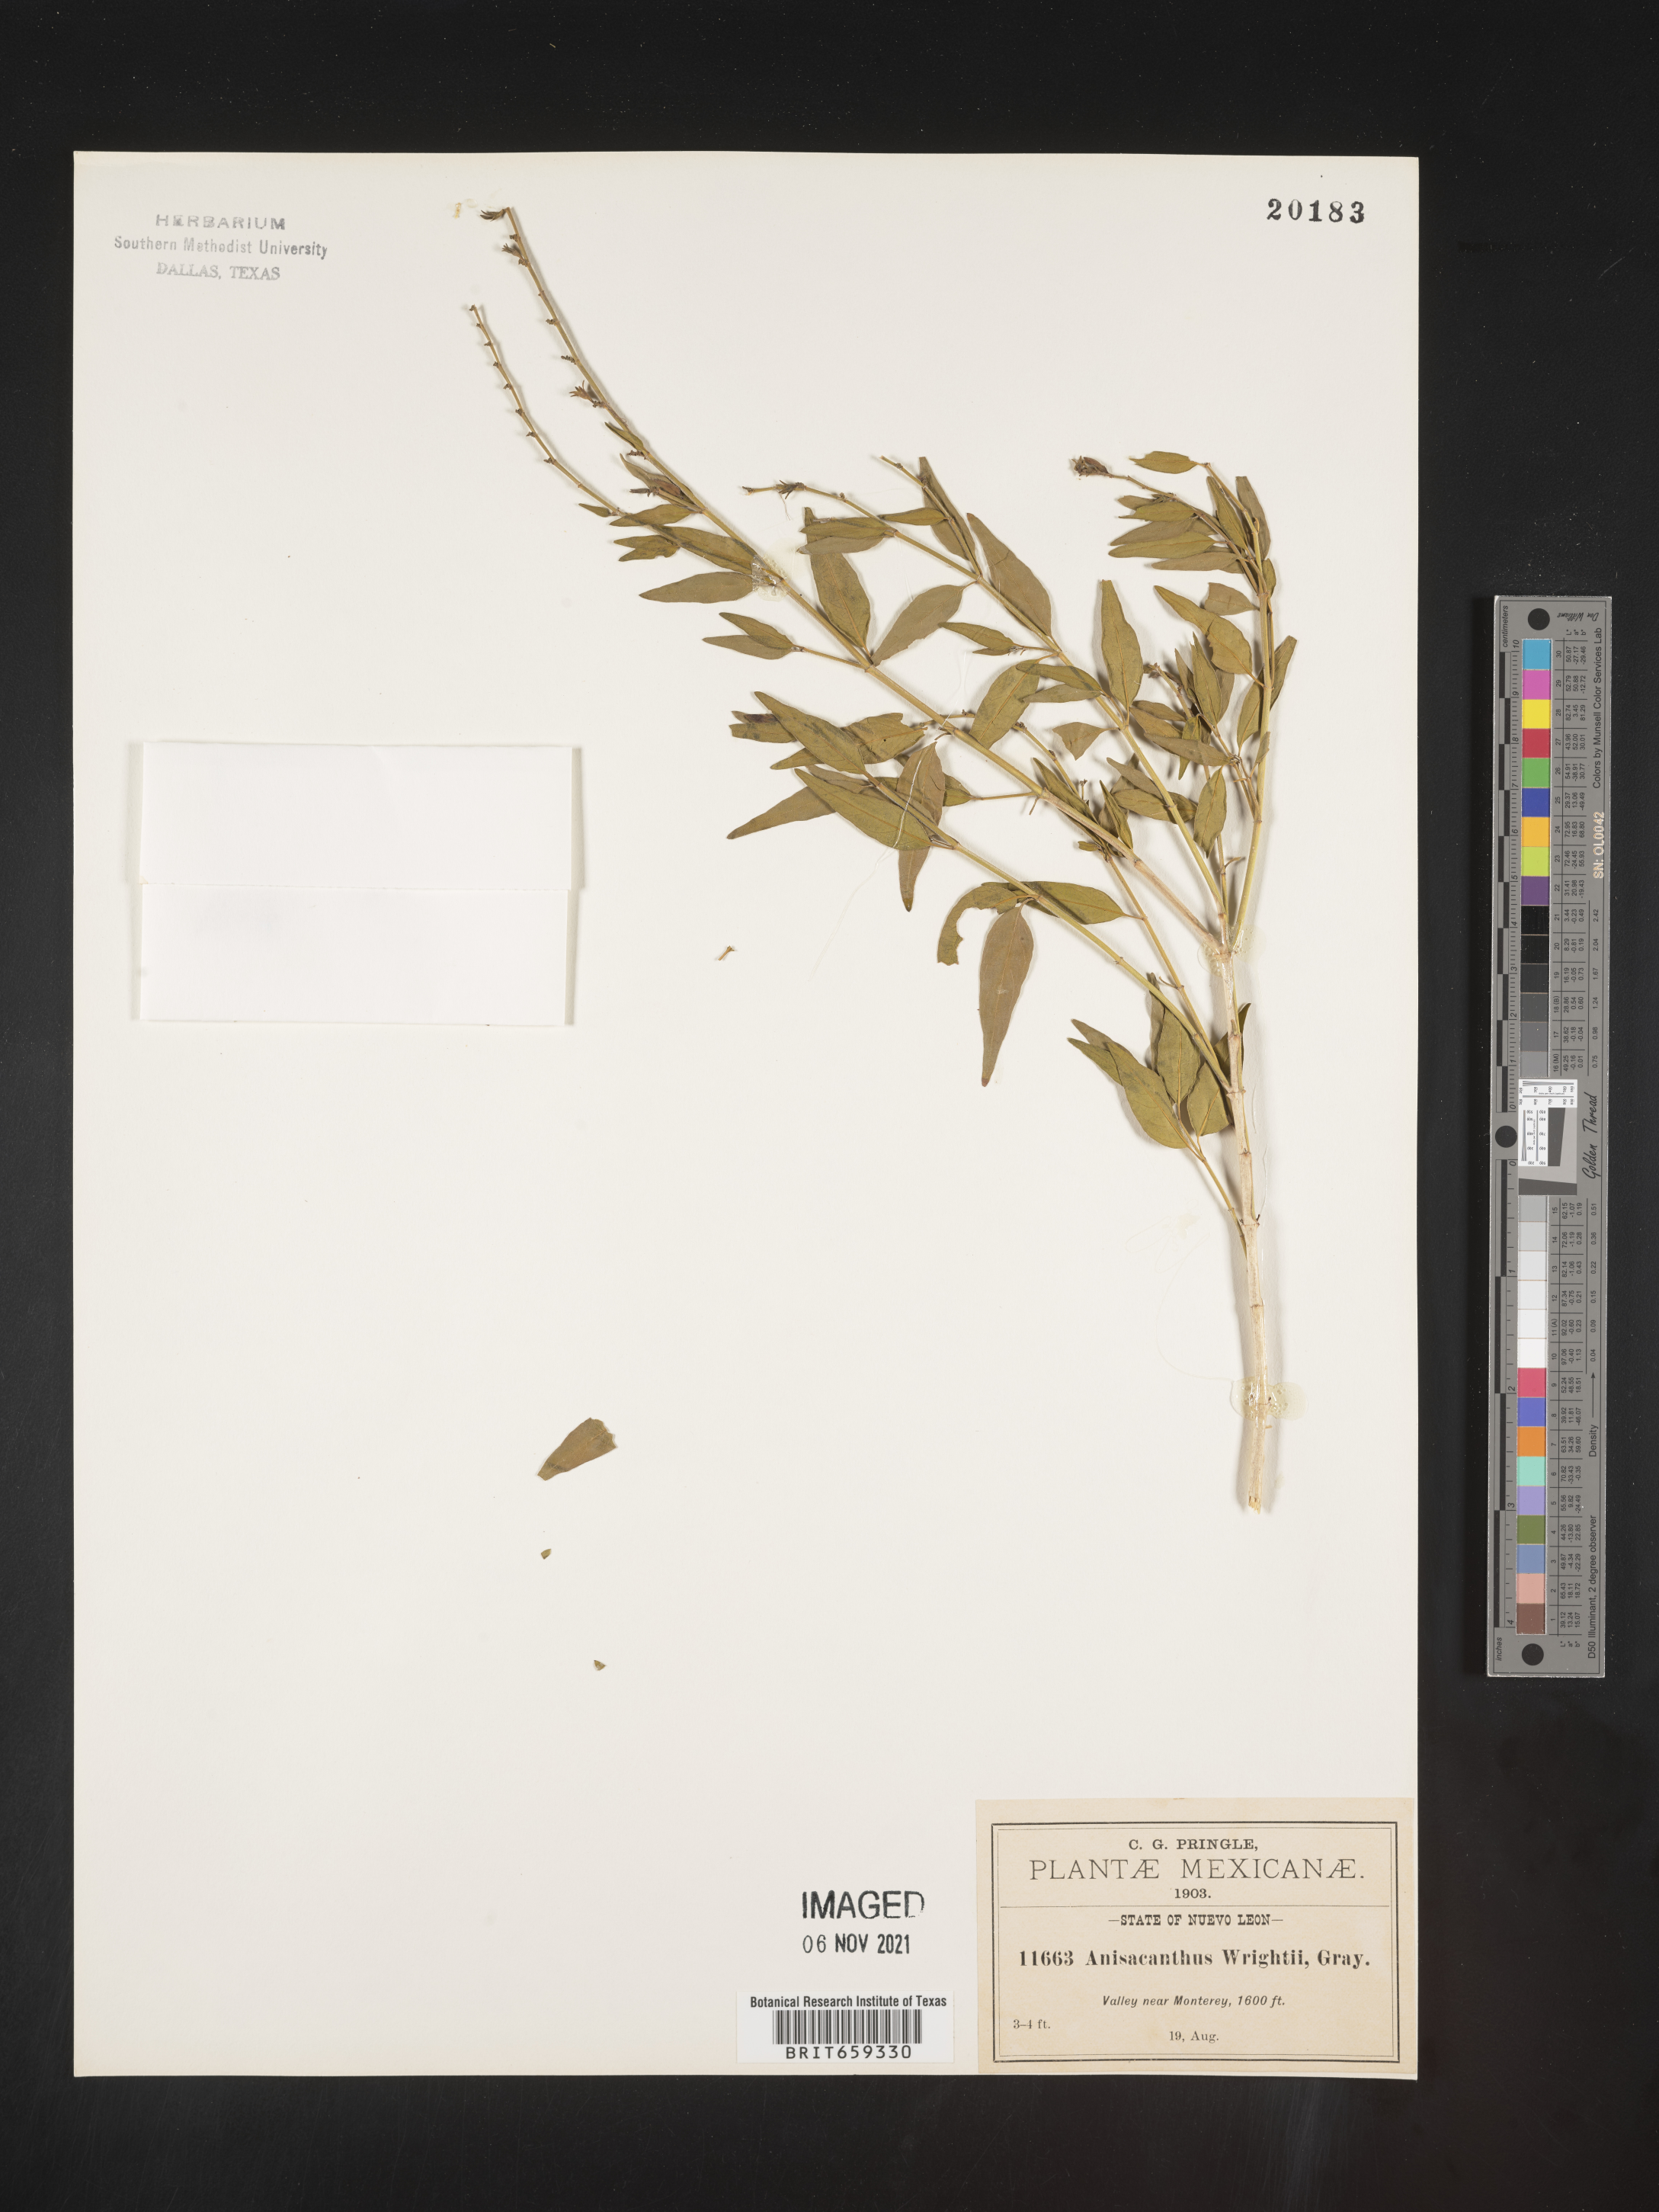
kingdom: Plantae
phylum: Tracheophyta
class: Magnoliopsida
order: Lamiales
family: Acanthaceae
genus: Anisacanthus
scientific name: Anisacanthus
